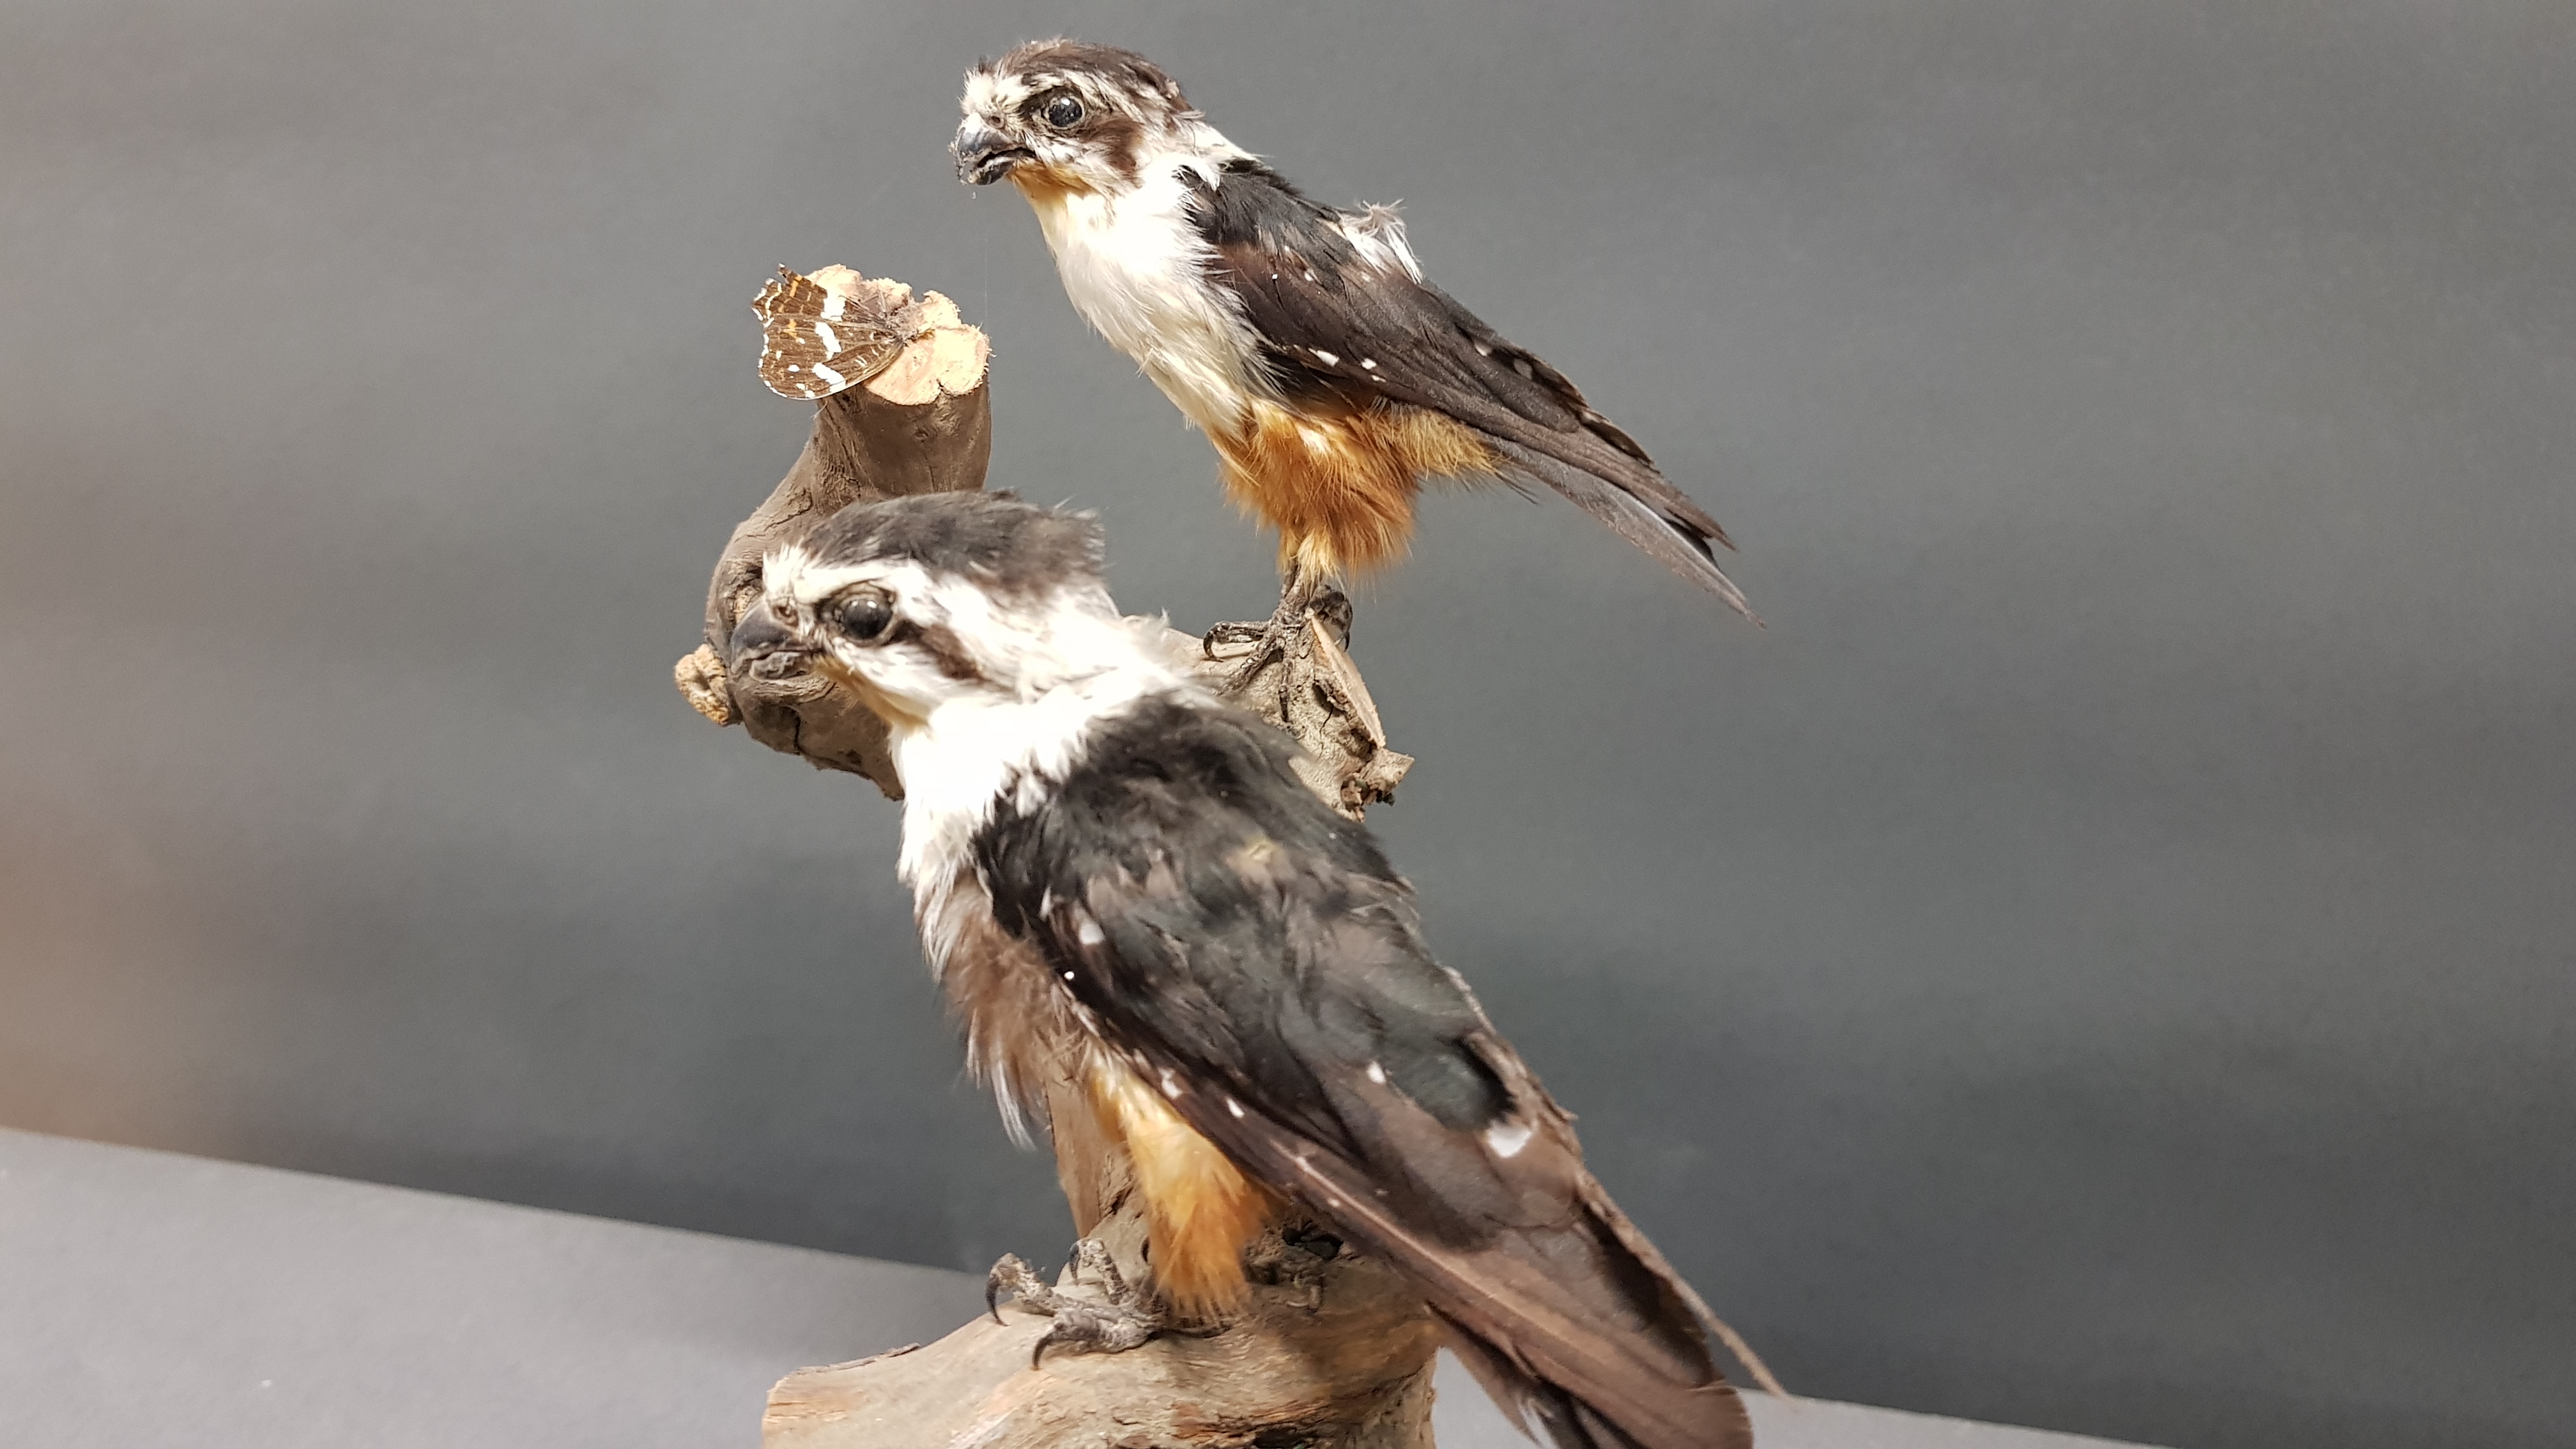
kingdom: Animalia
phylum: Chordata
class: Aves
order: Falconiformes
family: Falconidae
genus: Microhierax
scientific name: Microhierax caerulescens
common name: Collared falconet
